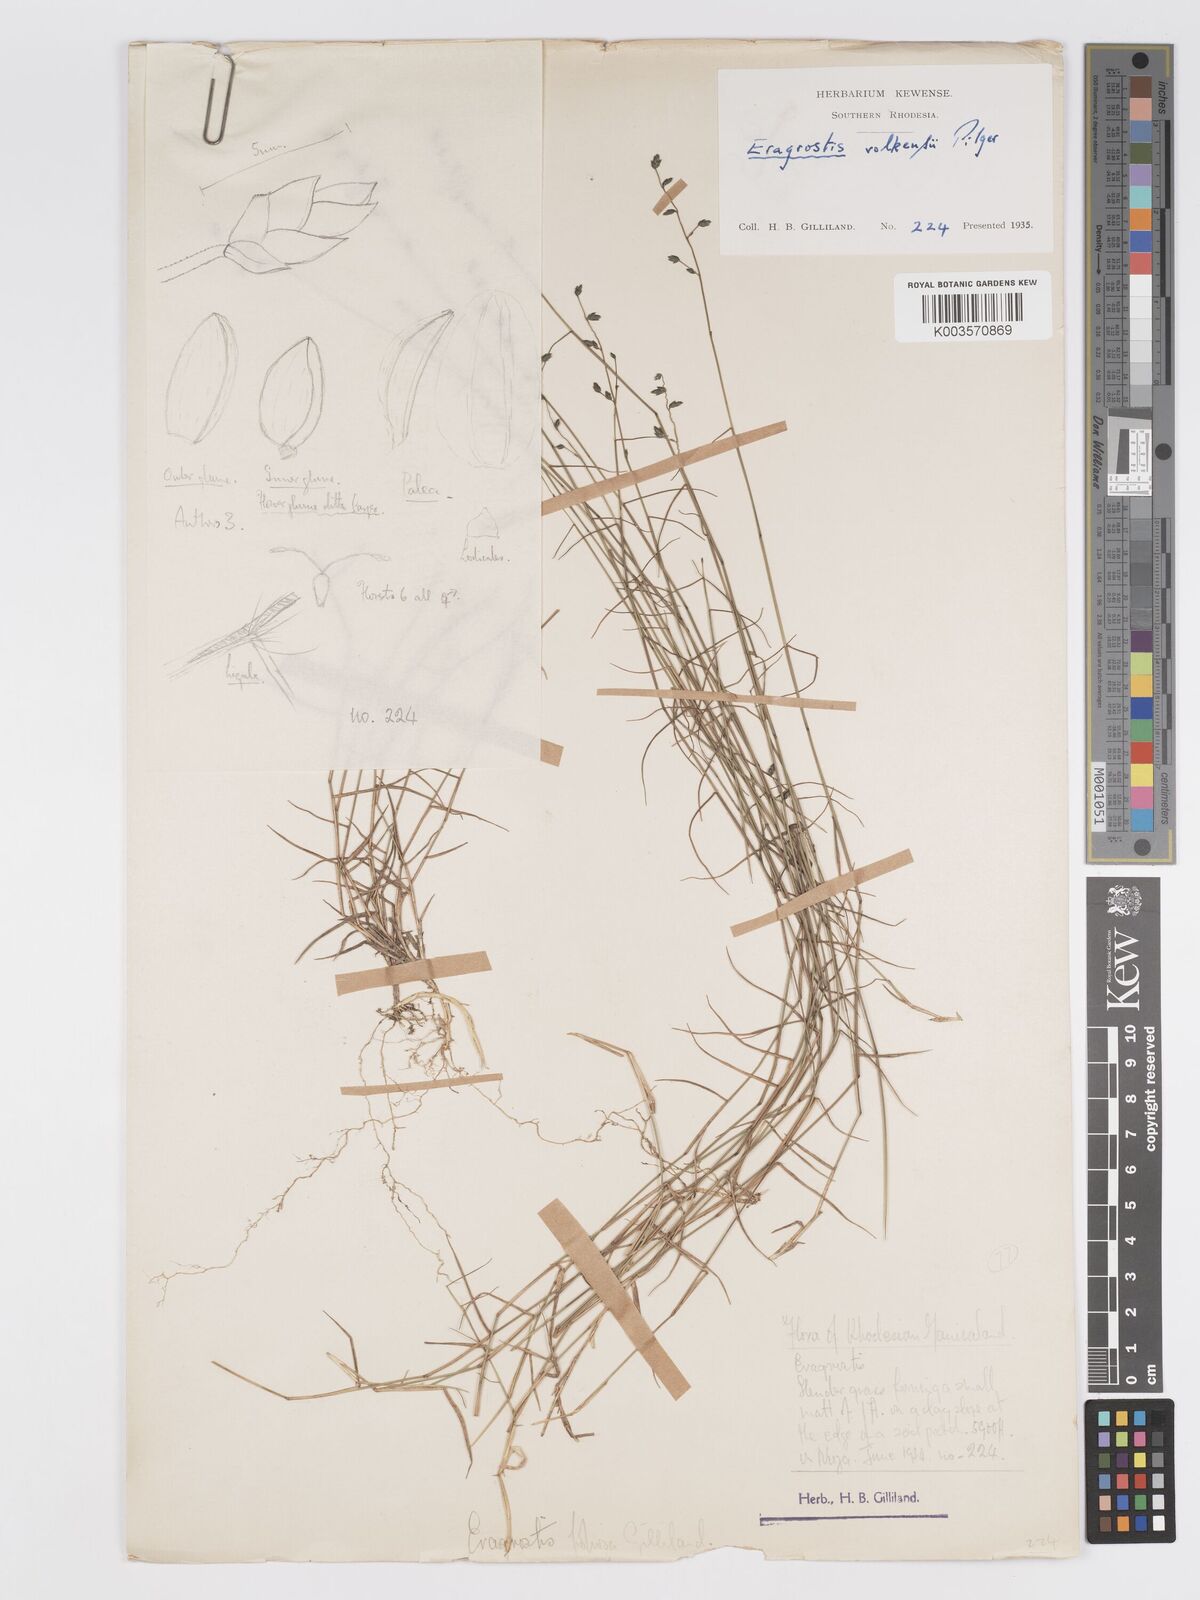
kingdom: Plantae
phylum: Tracheophyta
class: Liliopsida
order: Poales
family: Poaceae
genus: Eragrostis
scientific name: Eragrostis volkensii
